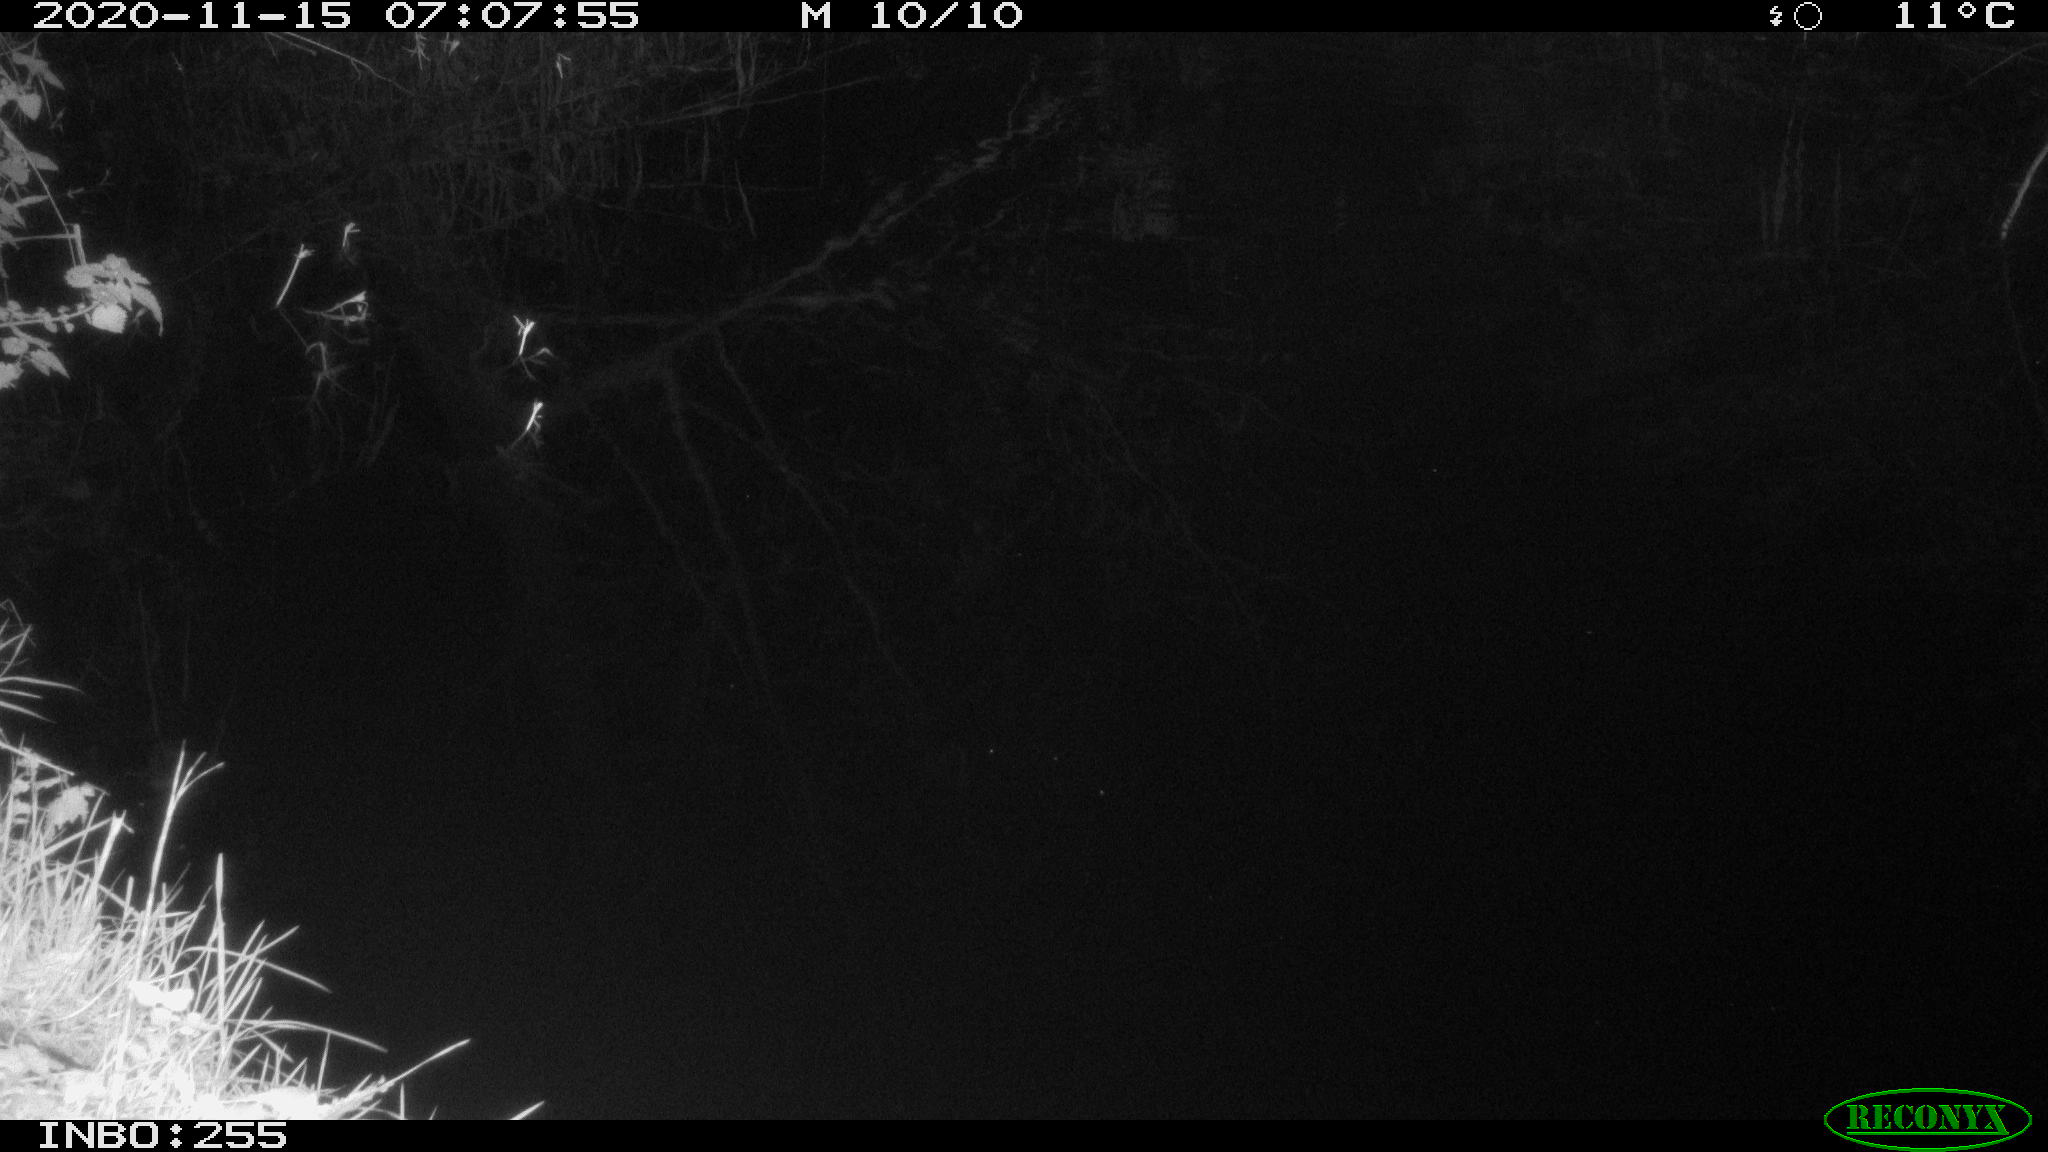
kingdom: Animalia
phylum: Chordata
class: Aves
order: Anseriformes
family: Anatidae
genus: Aix
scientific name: Aix galericulata
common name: Mandarin duck
